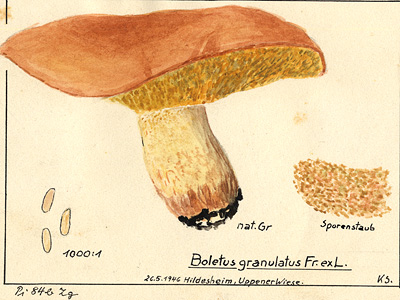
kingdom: Fungi
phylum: Basidiomycota
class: Agaricomycetes
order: Boletales
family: Suillaceae
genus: Suillus
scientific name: Suillus granulatus
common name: Weeping bolete
